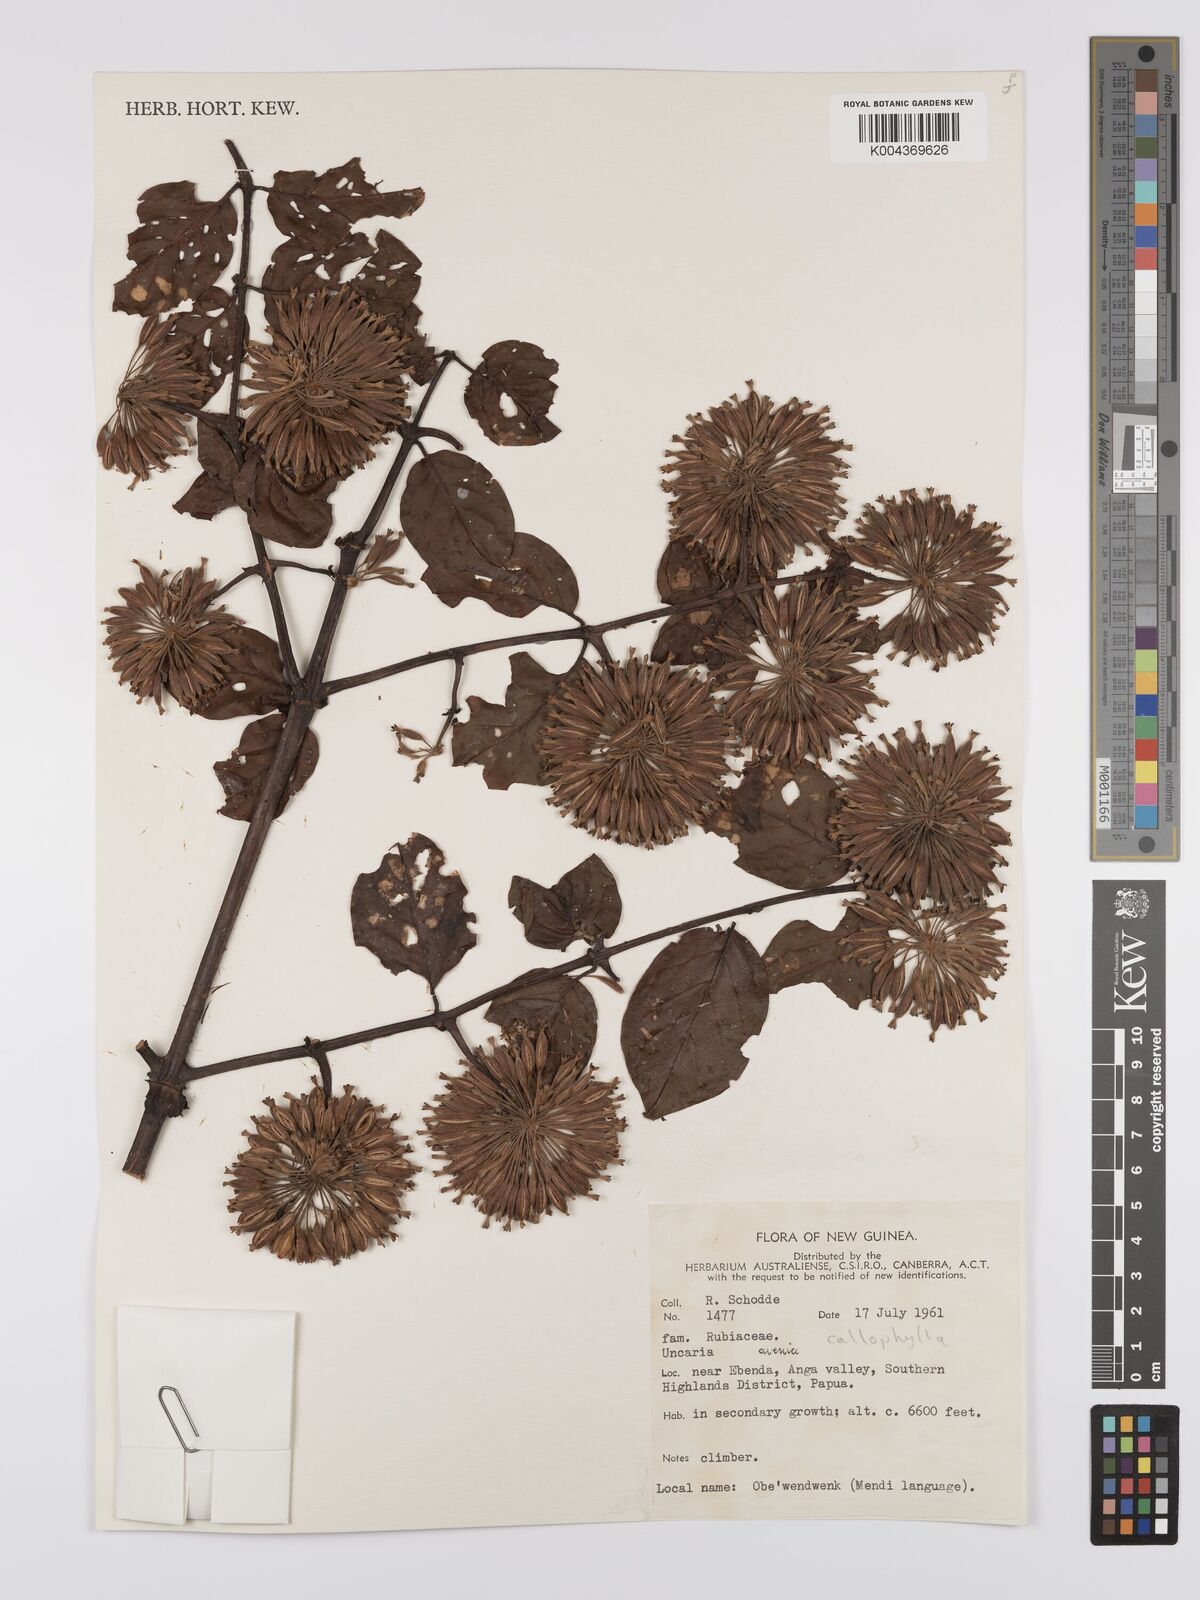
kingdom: Plantae
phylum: Tracheophyta
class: Magnoliopsida
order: Gentianales
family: Rubiaceae
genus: Uncaria
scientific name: Uncaria callophylla
